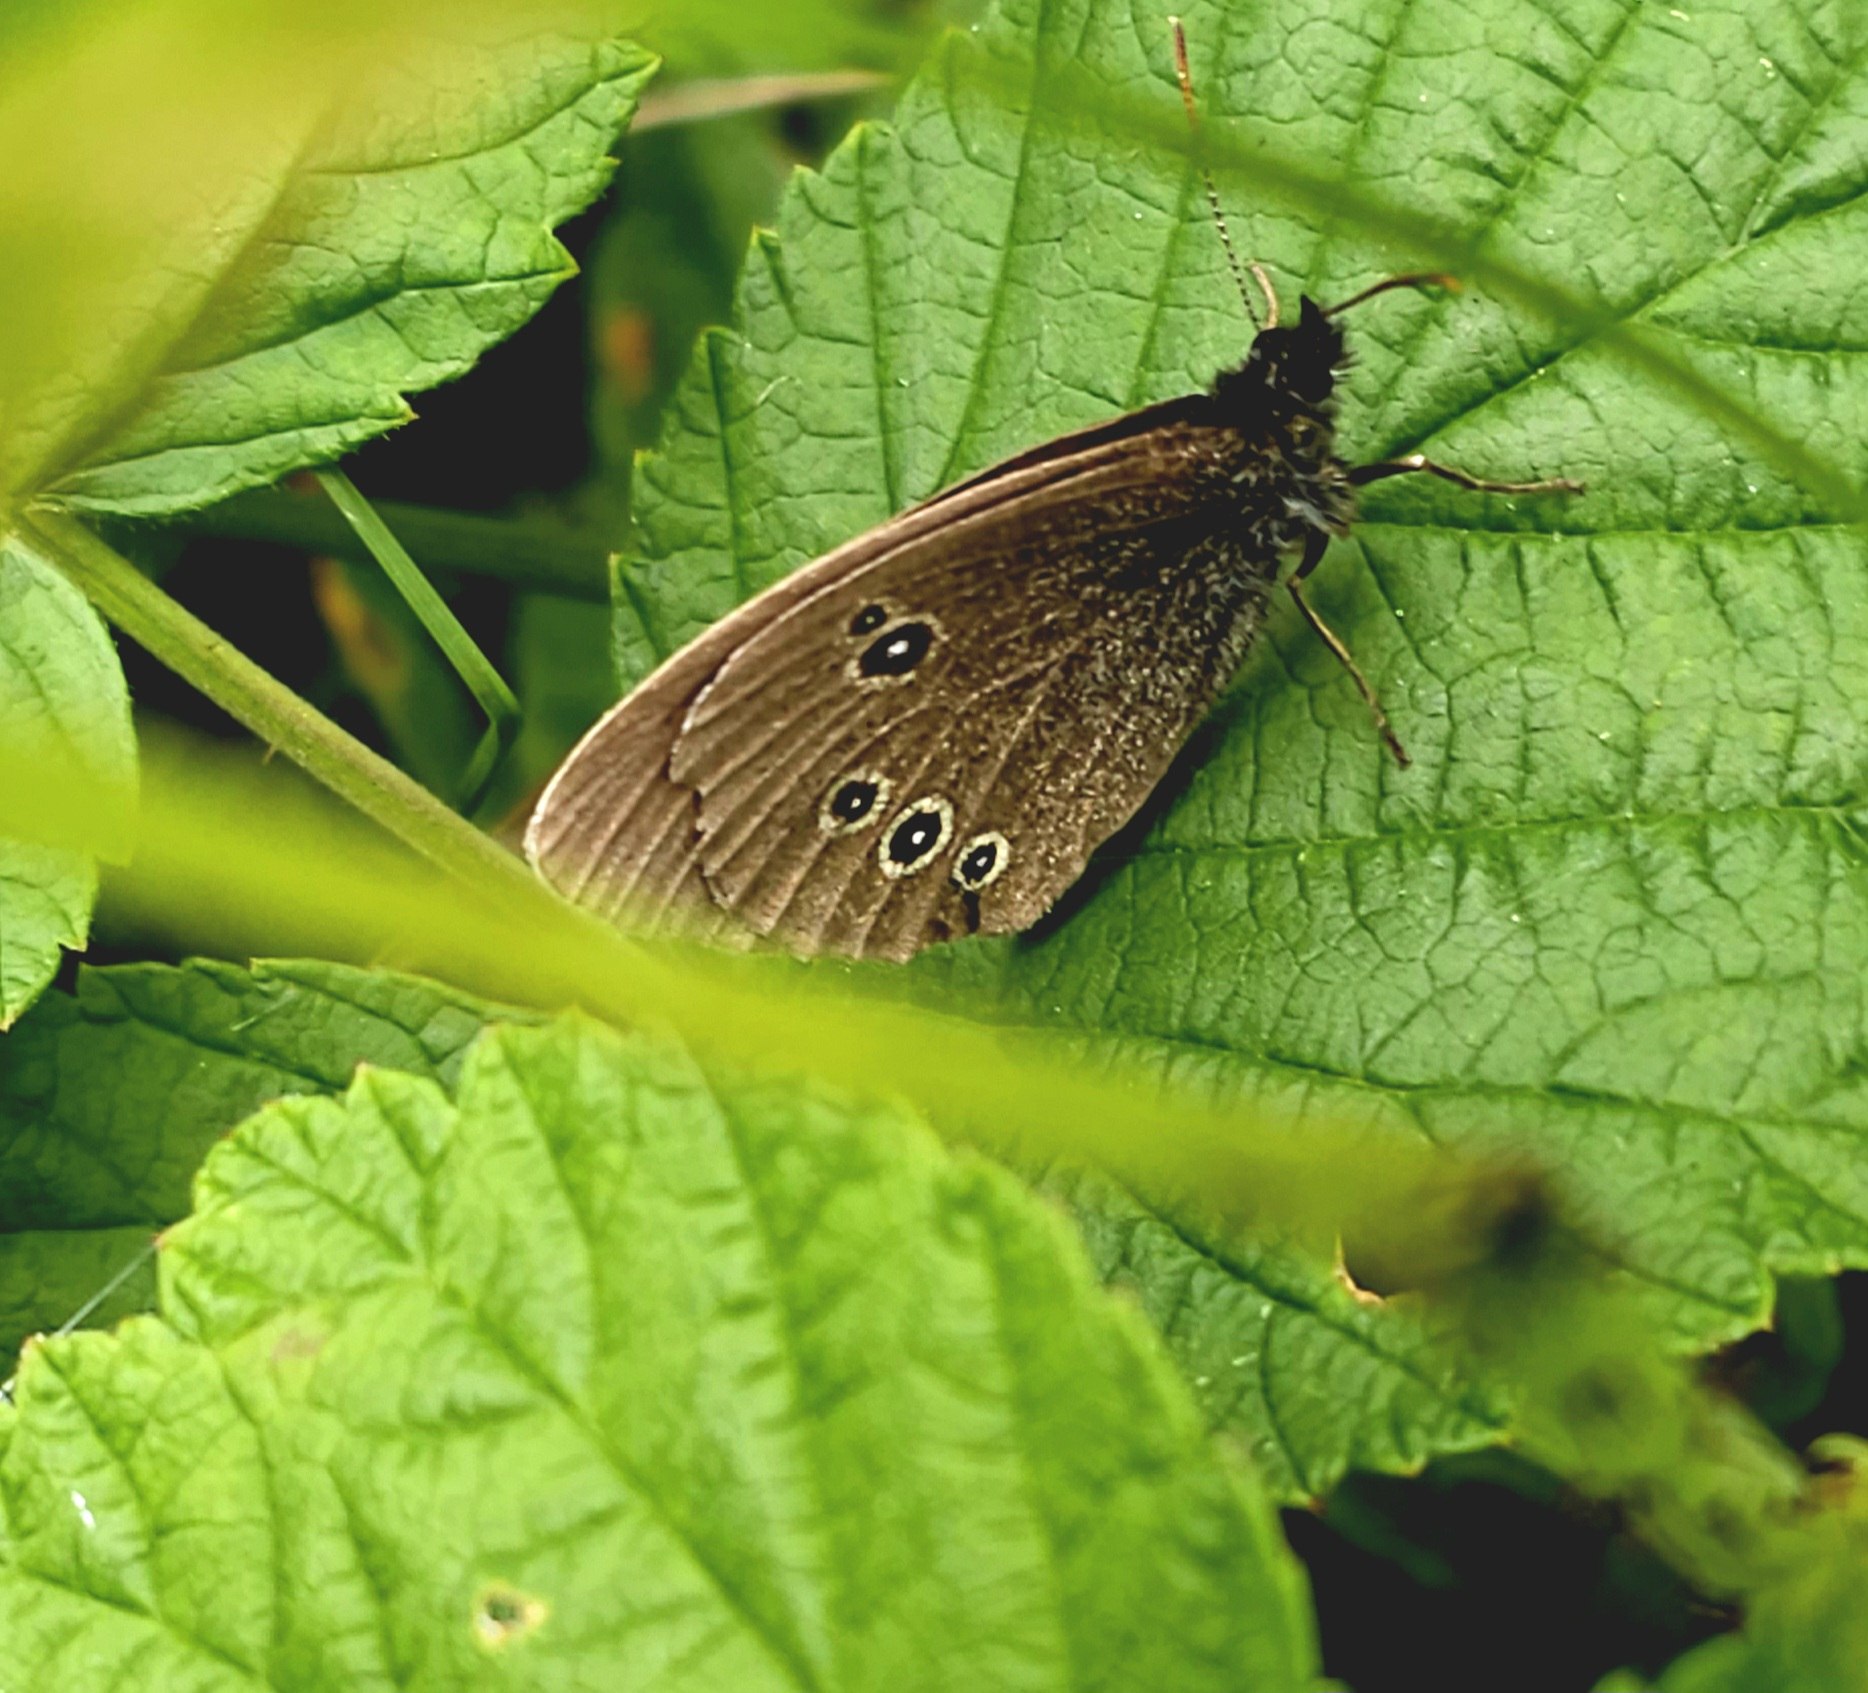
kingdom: Animalia
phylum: Arthropoda
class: Insecta
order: Lepidoptera
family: Nymphalidae
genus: Aphantopus
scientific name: Aphantopus hyperantus
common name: Engrandøje
